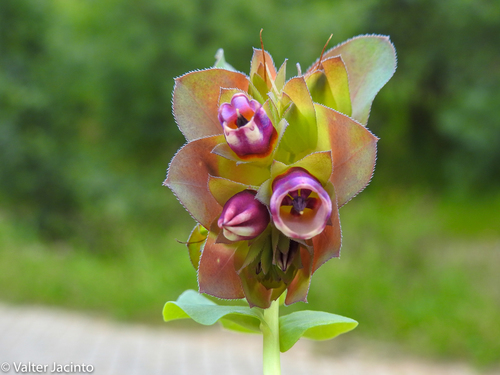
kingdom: Plantae
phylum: Tracheophyta
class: Magnoliopsida
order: Boraginales
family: Boraginaceae
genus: Cerinthe
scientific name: Cerinthe major
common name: Greater honeywort
